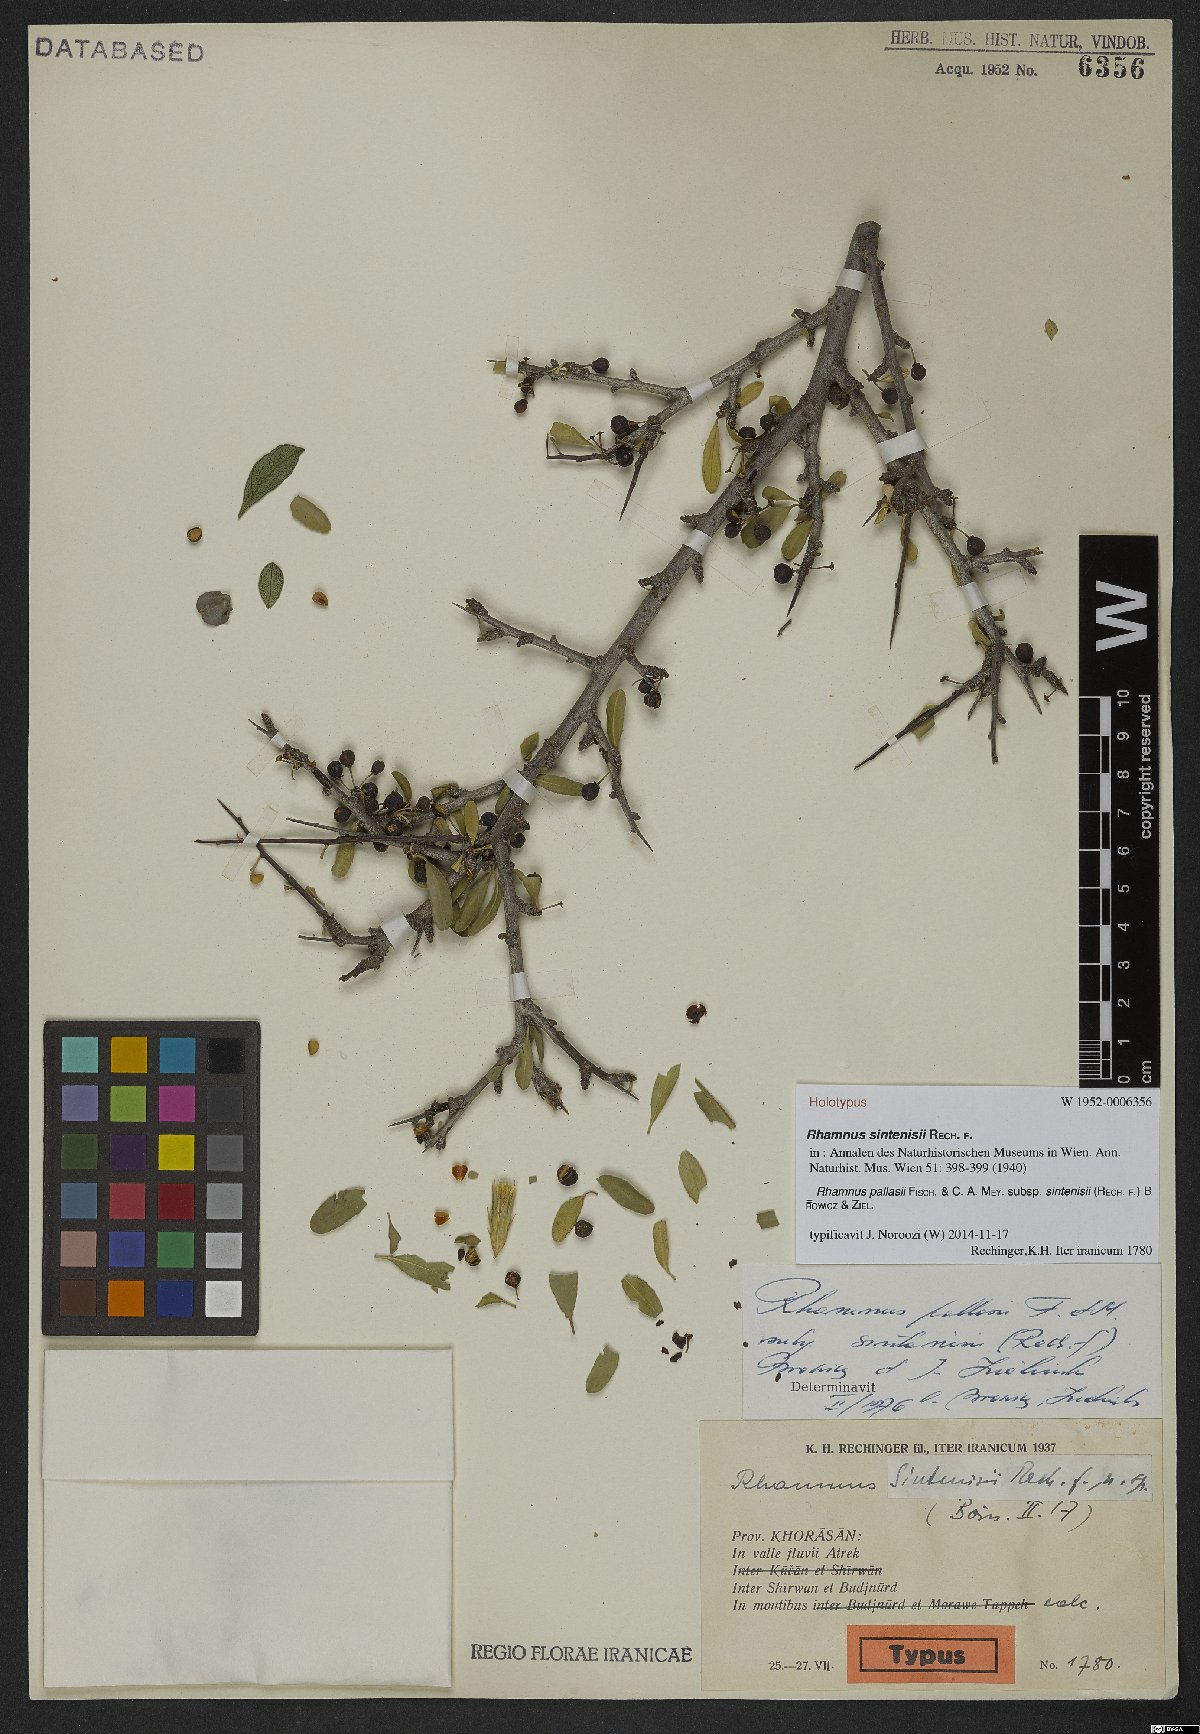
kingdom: Plantae
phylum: Tracheophyta
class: Magnoliopsida
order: Rosales
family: Rhamnaceae
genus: Rhamnus
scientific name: Rhamnus erythroxyloides
